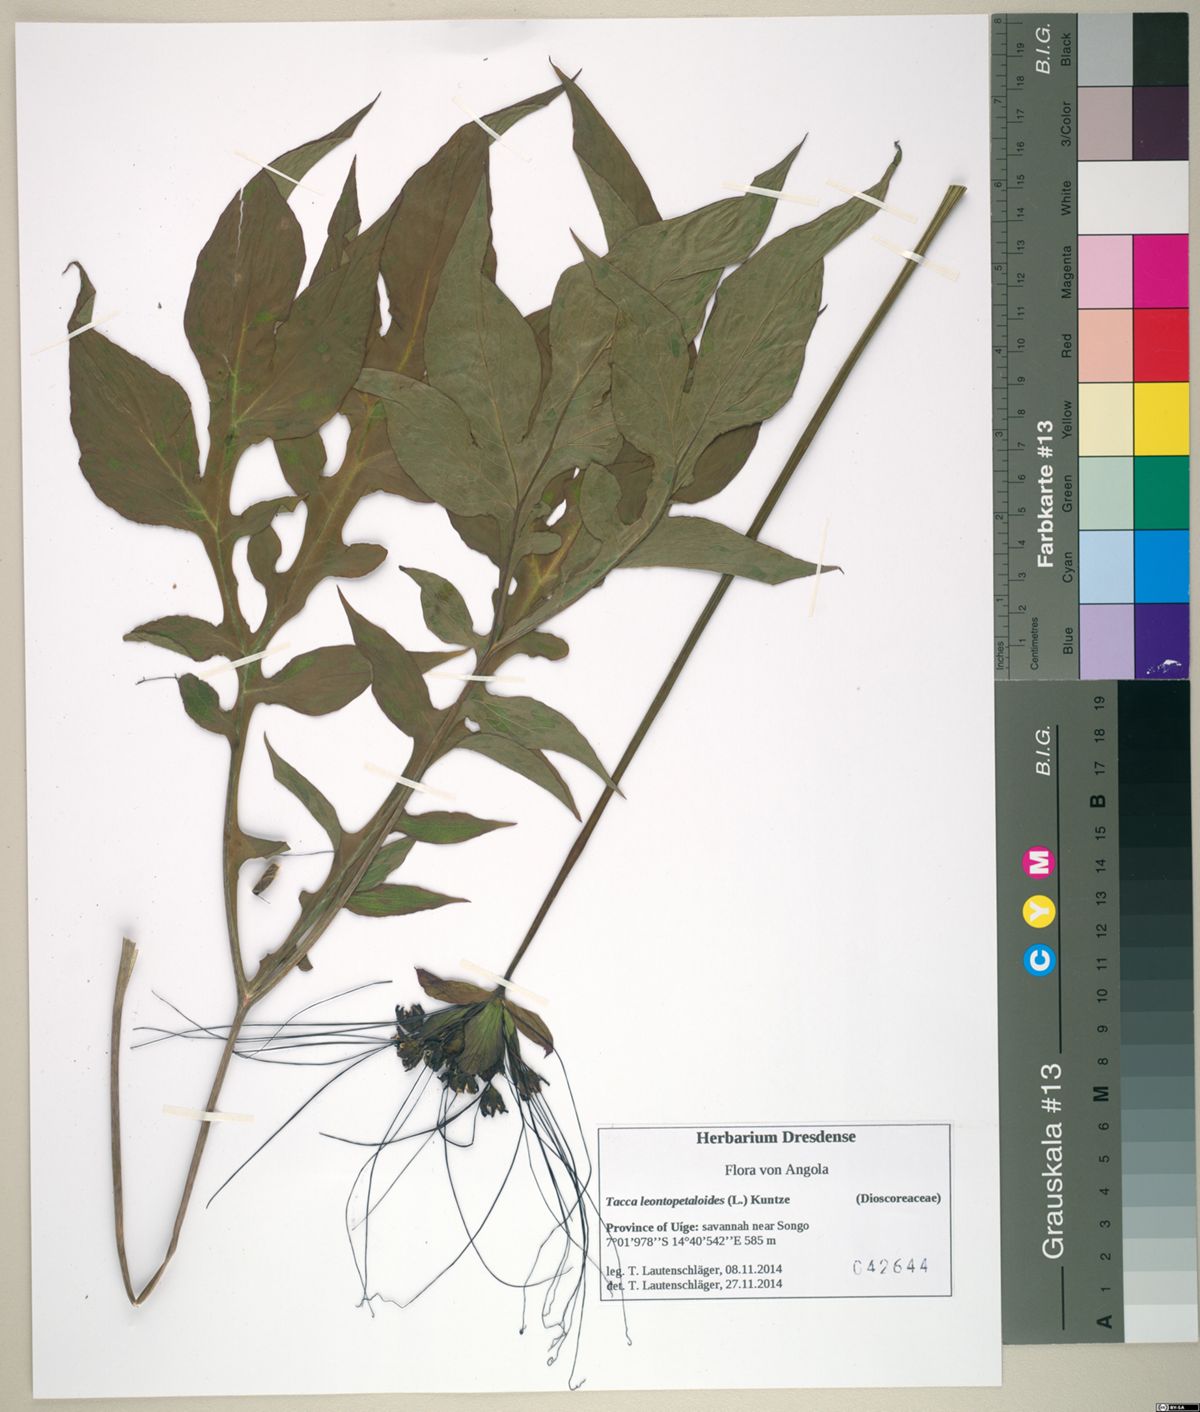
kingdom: Plantae
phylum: Tracheophyta
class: Liliopsida
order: Dioscoreales
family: Dioscoreaceae
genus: Tacca
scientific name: Tacca leontopetaloides
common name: Arrowroot
